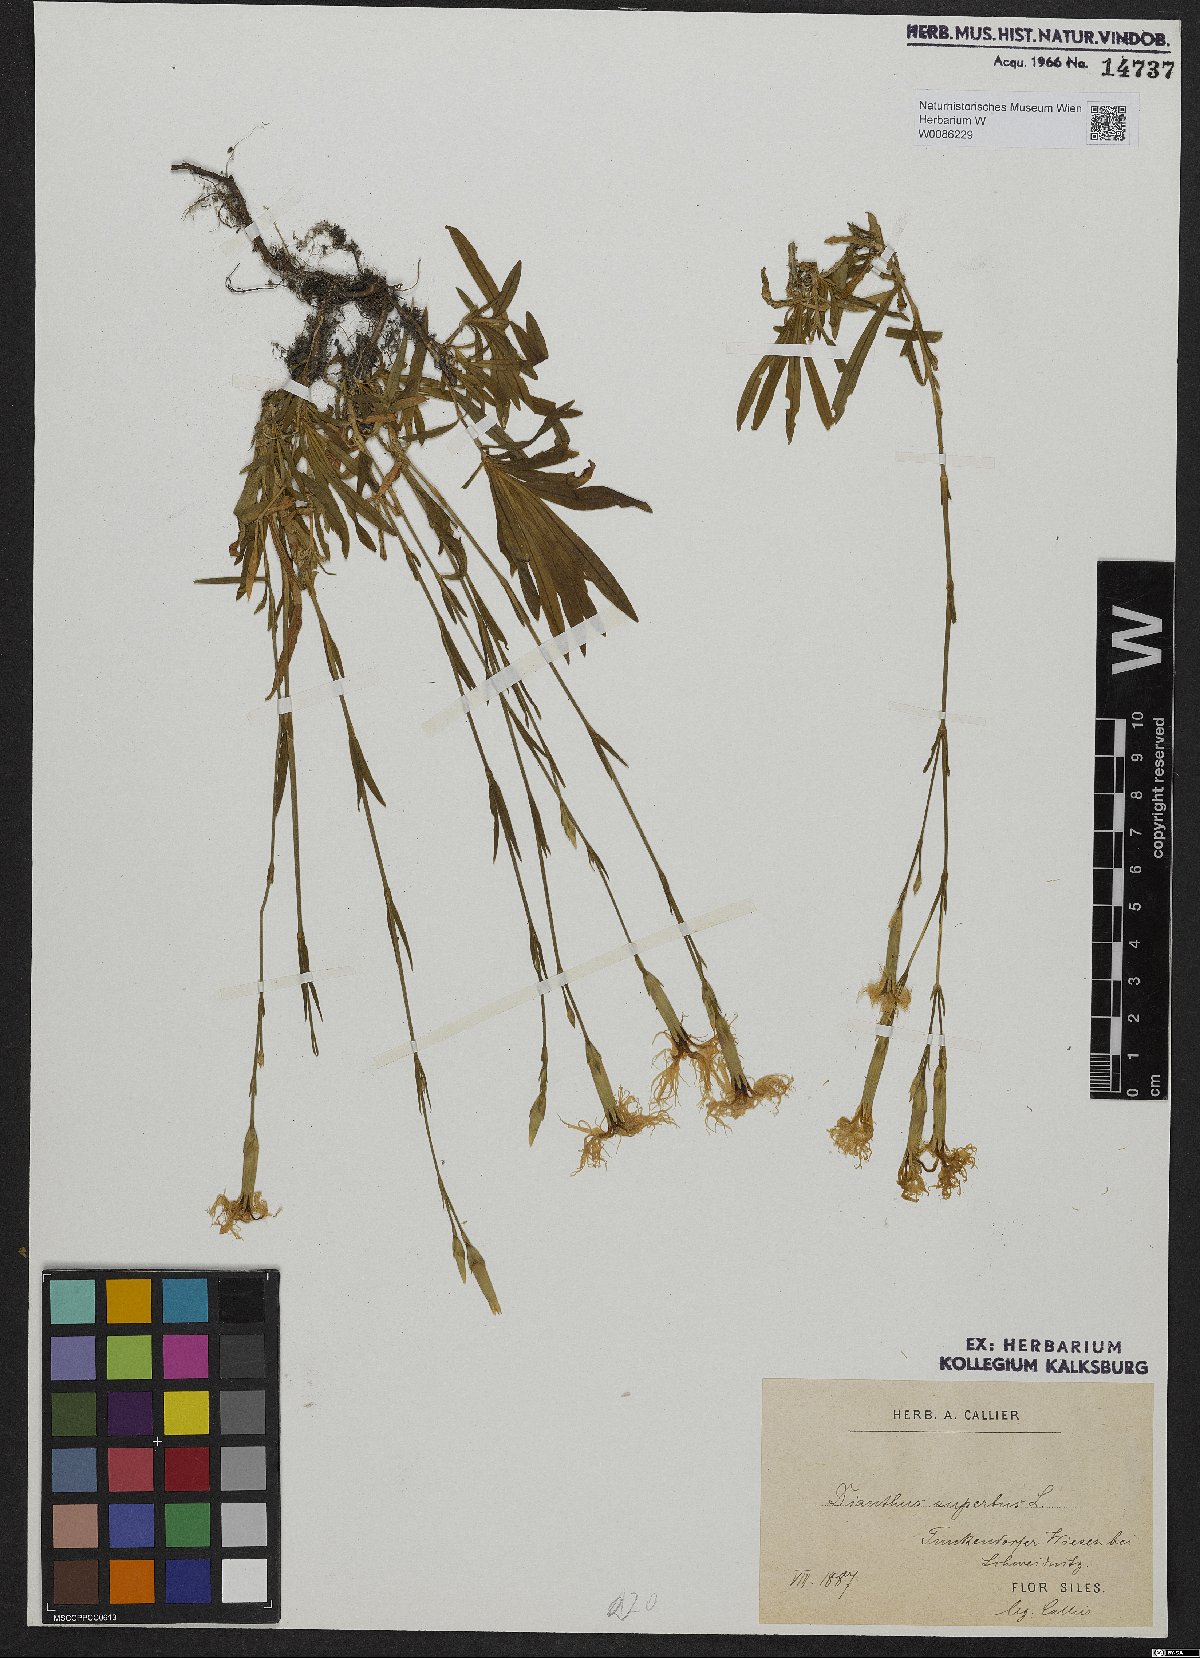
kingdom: Plantae
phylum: Tracheophyta
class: Magnoliopsida
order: Caryophyllales
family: Caryophyllaceae
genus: Dianthus
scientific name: Dianthus superbus
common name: Fringed pink
